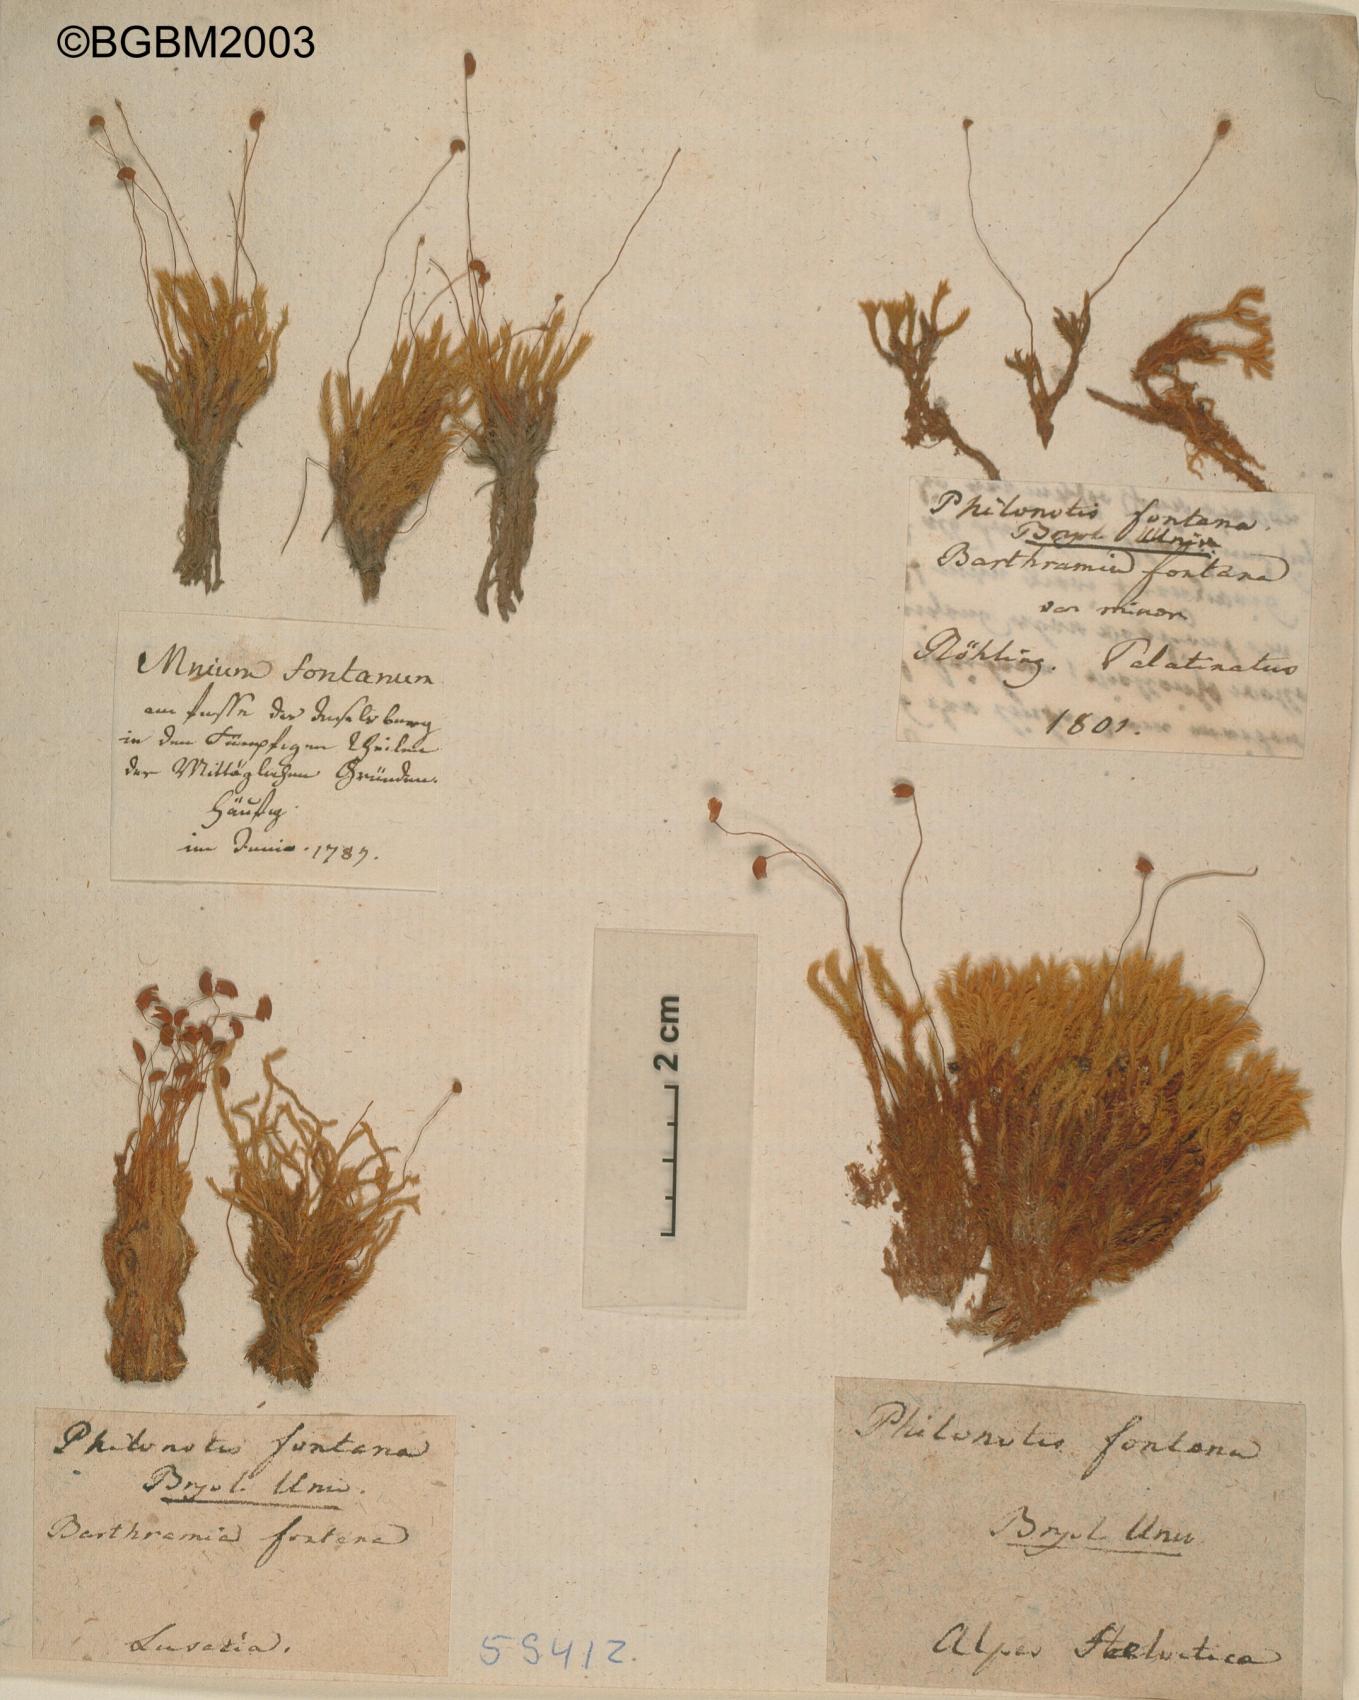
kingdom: Plantae
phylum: Bryophyta
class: Bryopsida
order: Bartramiales
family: Bartramiaceae
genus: Philonotis
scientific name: Philonotis fontana
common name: Fountain apple-moss
